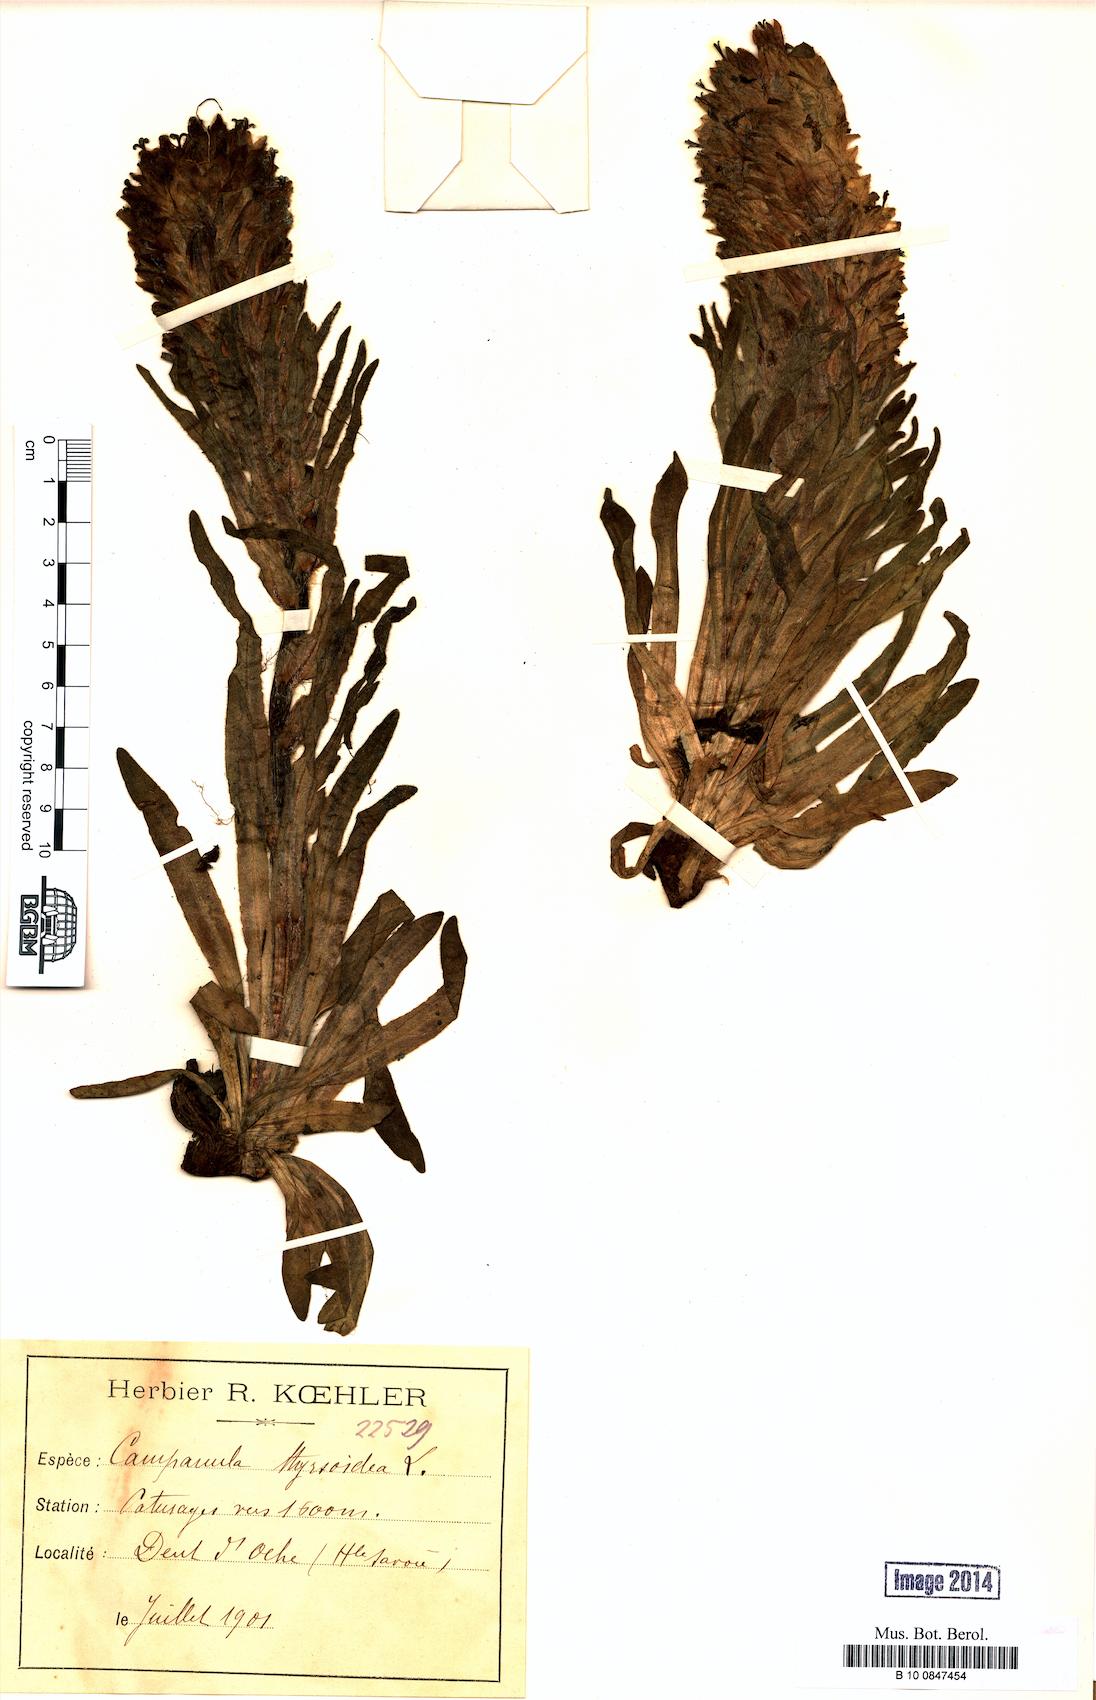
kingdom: Plantae
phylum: Tracheophyta
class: Magnoliopsida
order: Asterales
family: Campanulaceae
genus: Campanula
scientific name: Campanula thyrsoides
